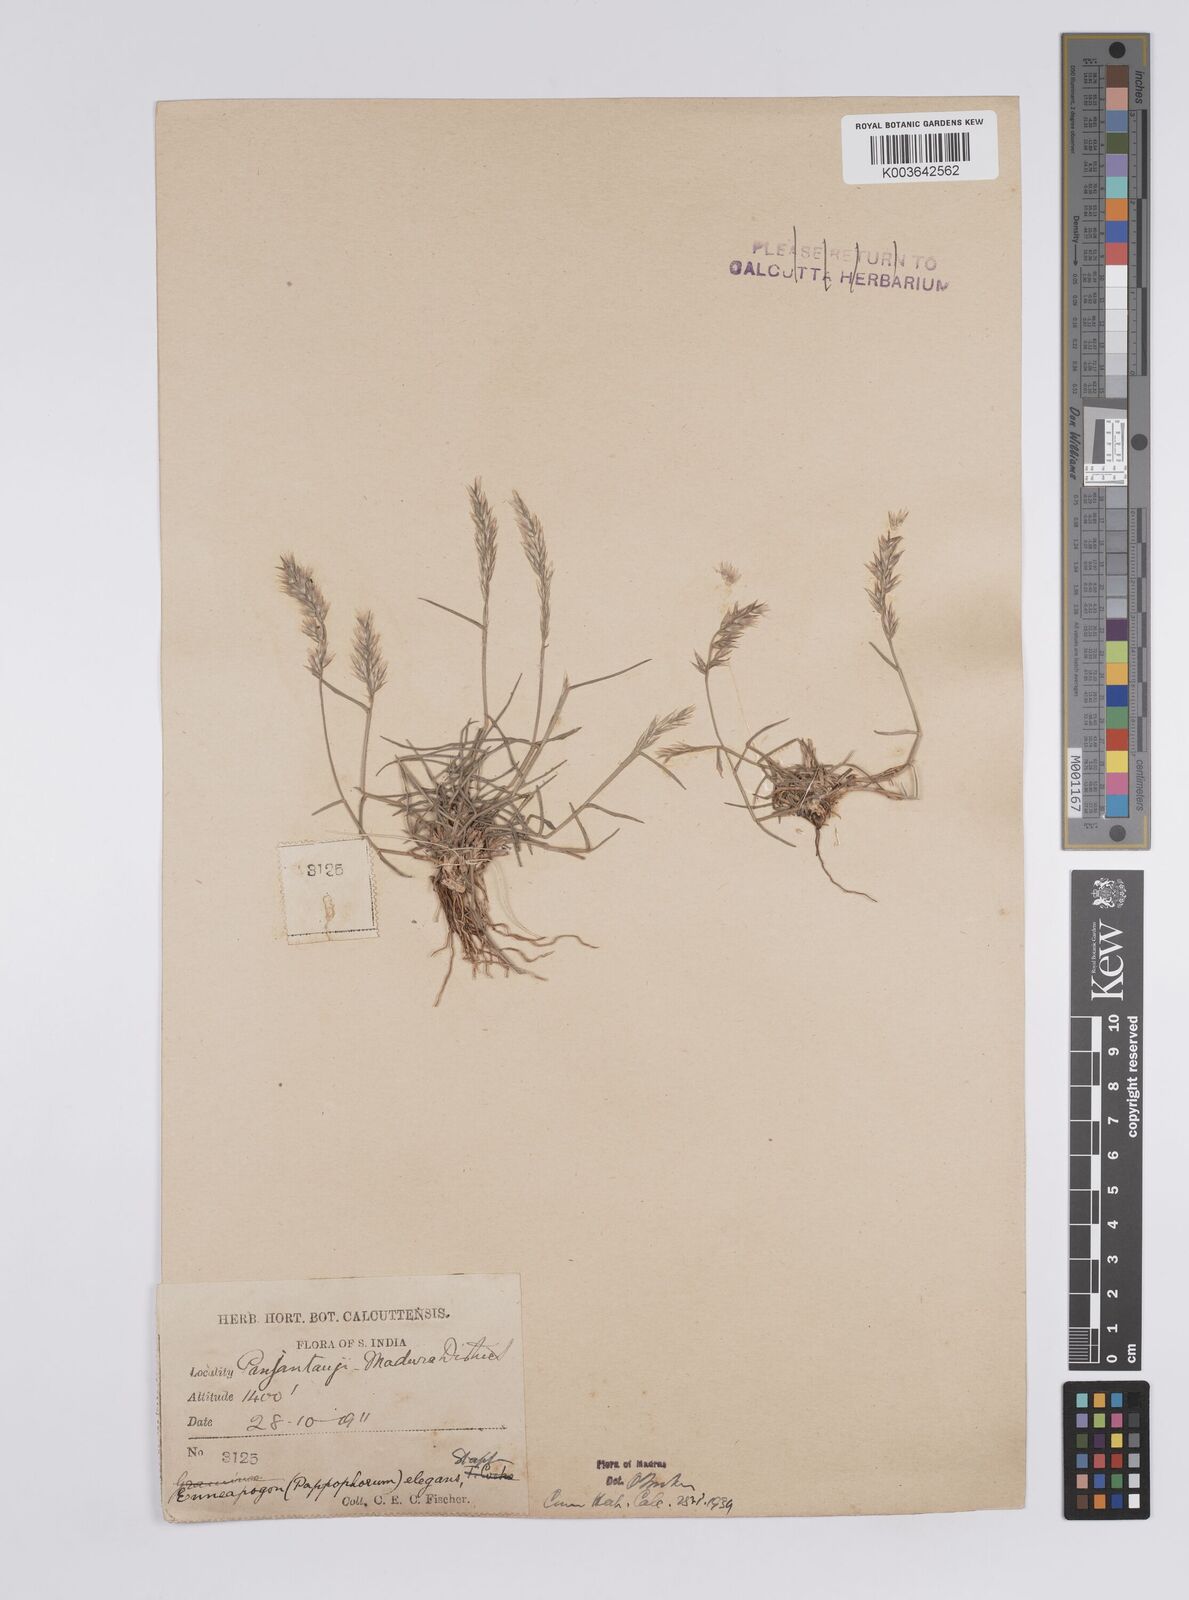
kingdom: Plantae
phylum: Tracheophyta
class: Liliopsida
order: Poales
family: Poaceae
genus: Enneapogon
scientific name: Enneapogon persicus
